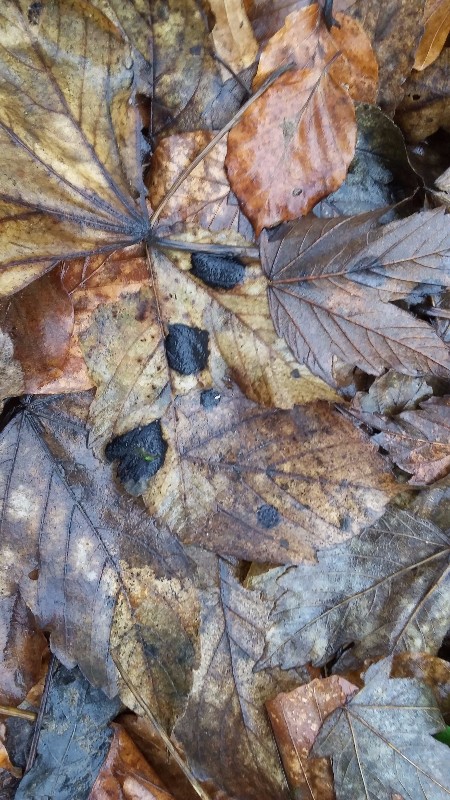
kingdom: Fungi
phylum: Ascomycota
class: Leotiomycetes
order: Rhytismatales
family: Rhytismataceae
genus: Rhytisma
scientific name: Rhytisma acerinum
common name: ahorn-rynkeplet
